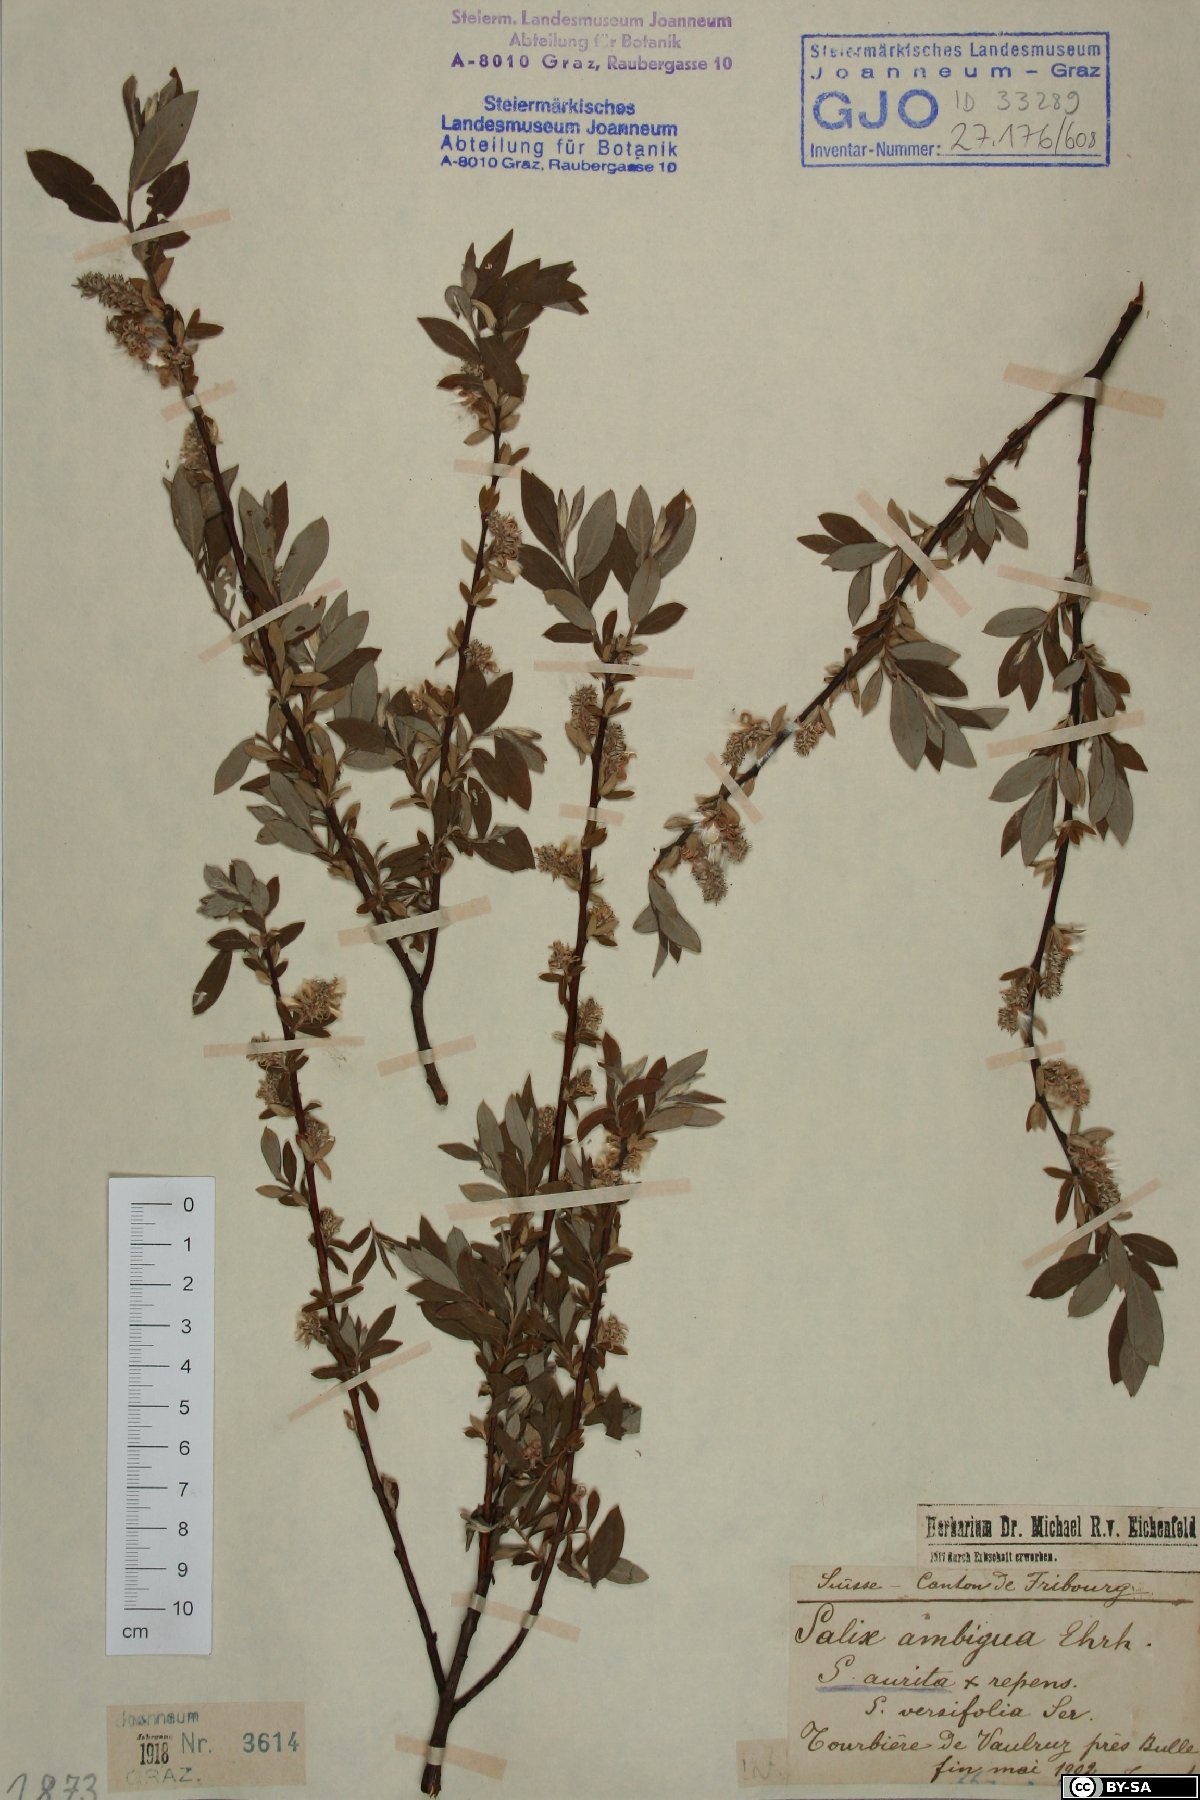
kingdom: Plantae
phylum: Tracheophyta
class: Magnoliopsida
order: Malpighiales
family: Salicaceae
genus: Salix
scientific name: Salix ambigua
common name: Puzzle willow
